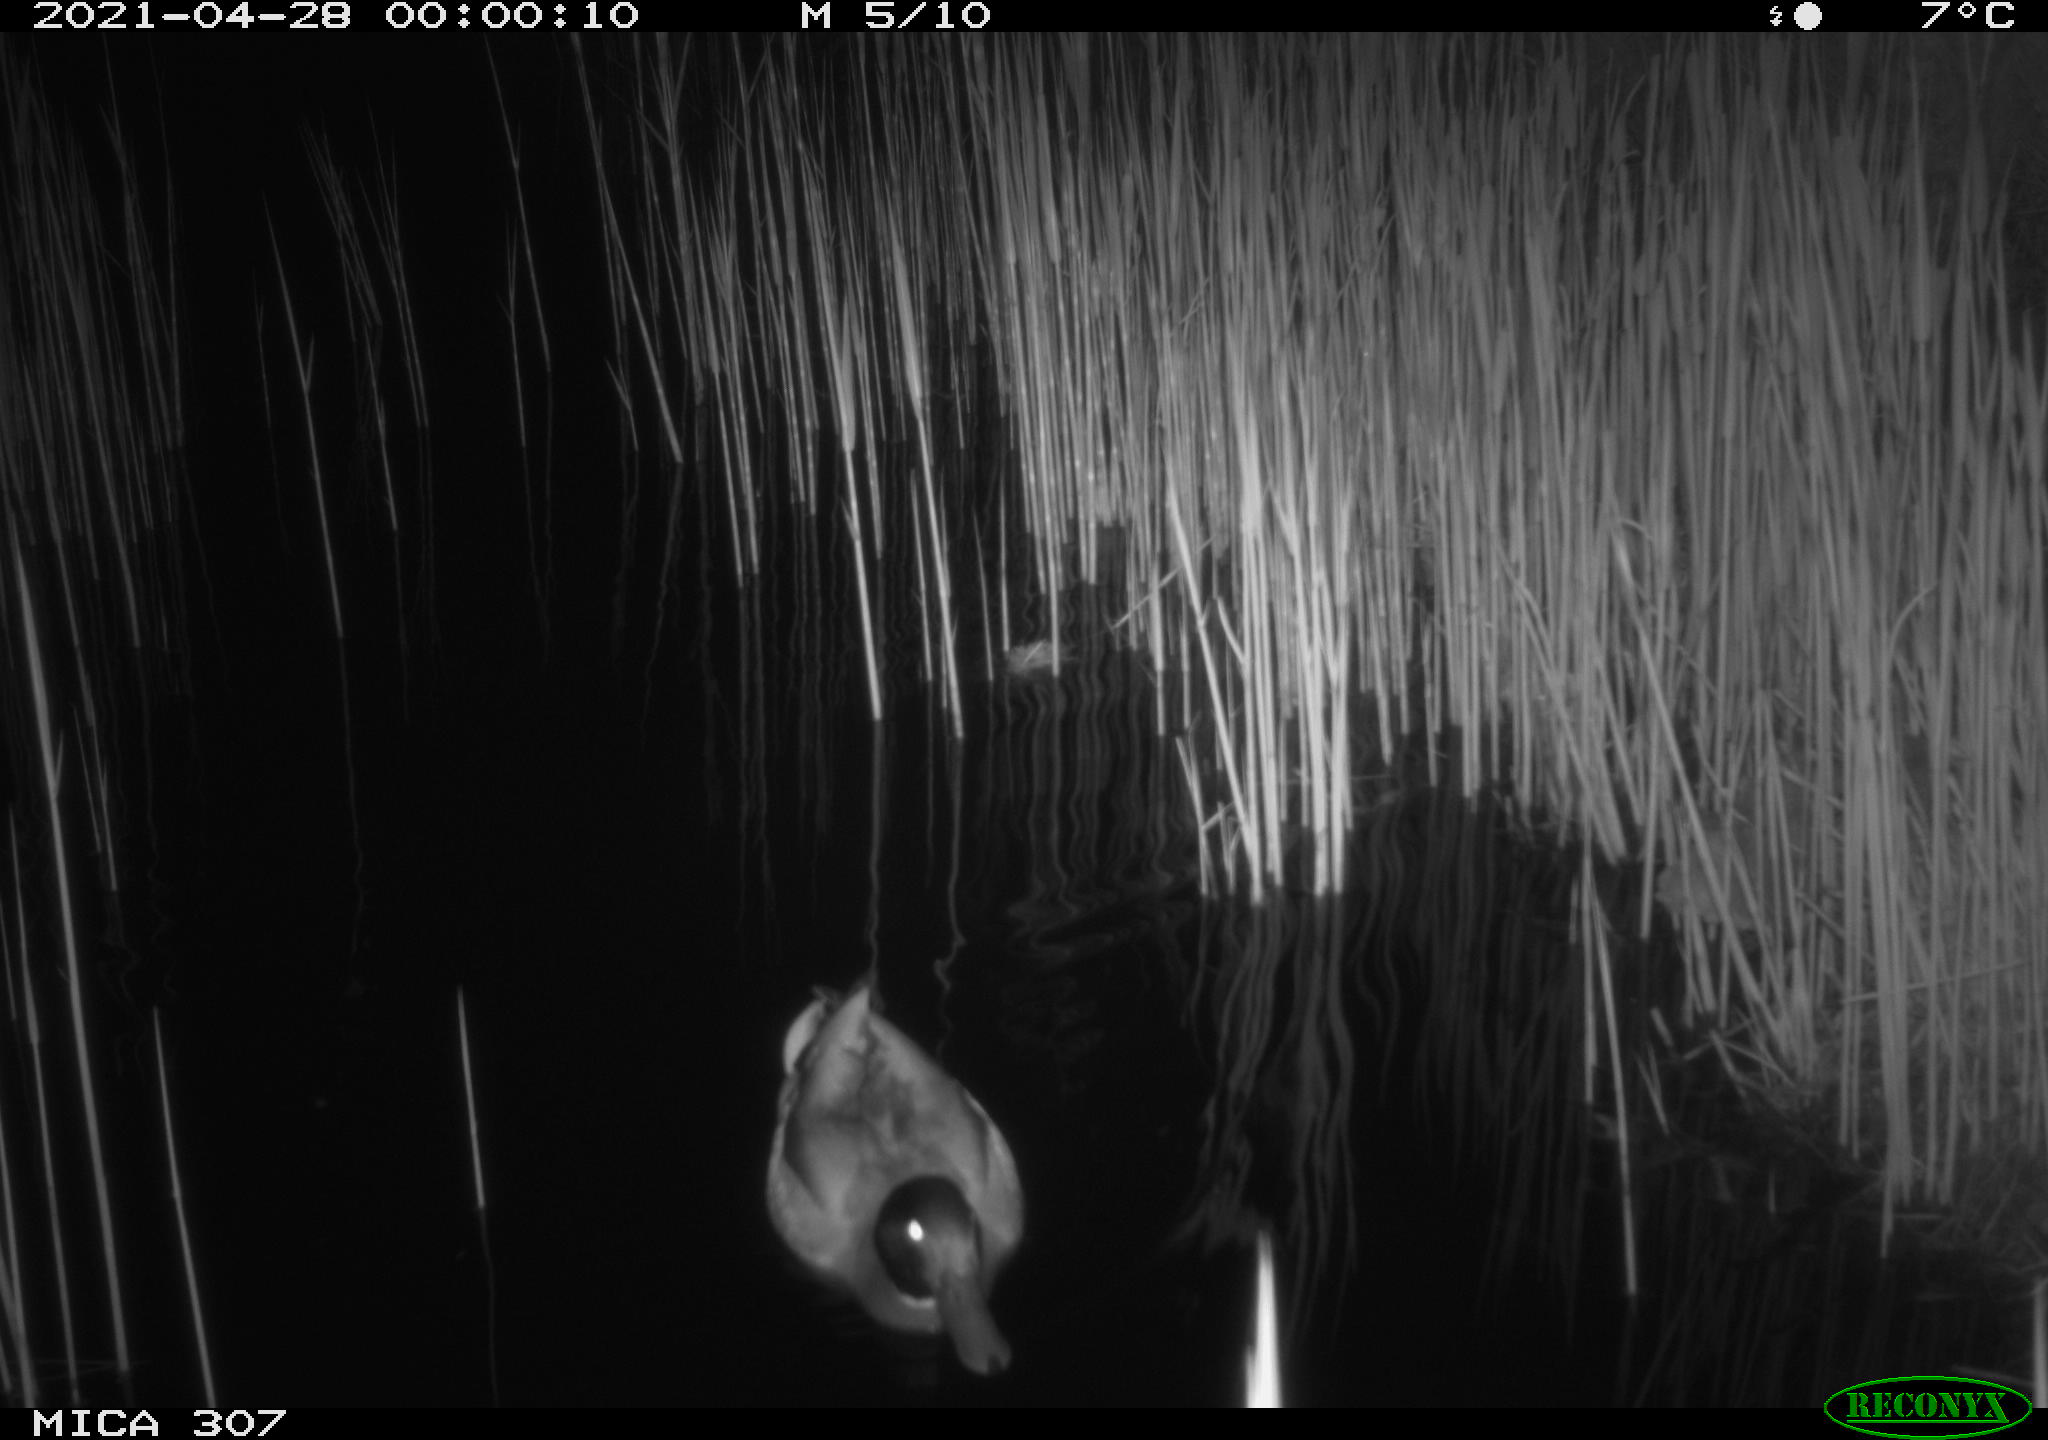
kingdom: Animalia
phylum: Chordata
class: Aves
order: Anseriformes
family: Anatidae
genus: Anas
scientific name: Anas platyrhynchos
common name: Mallard
